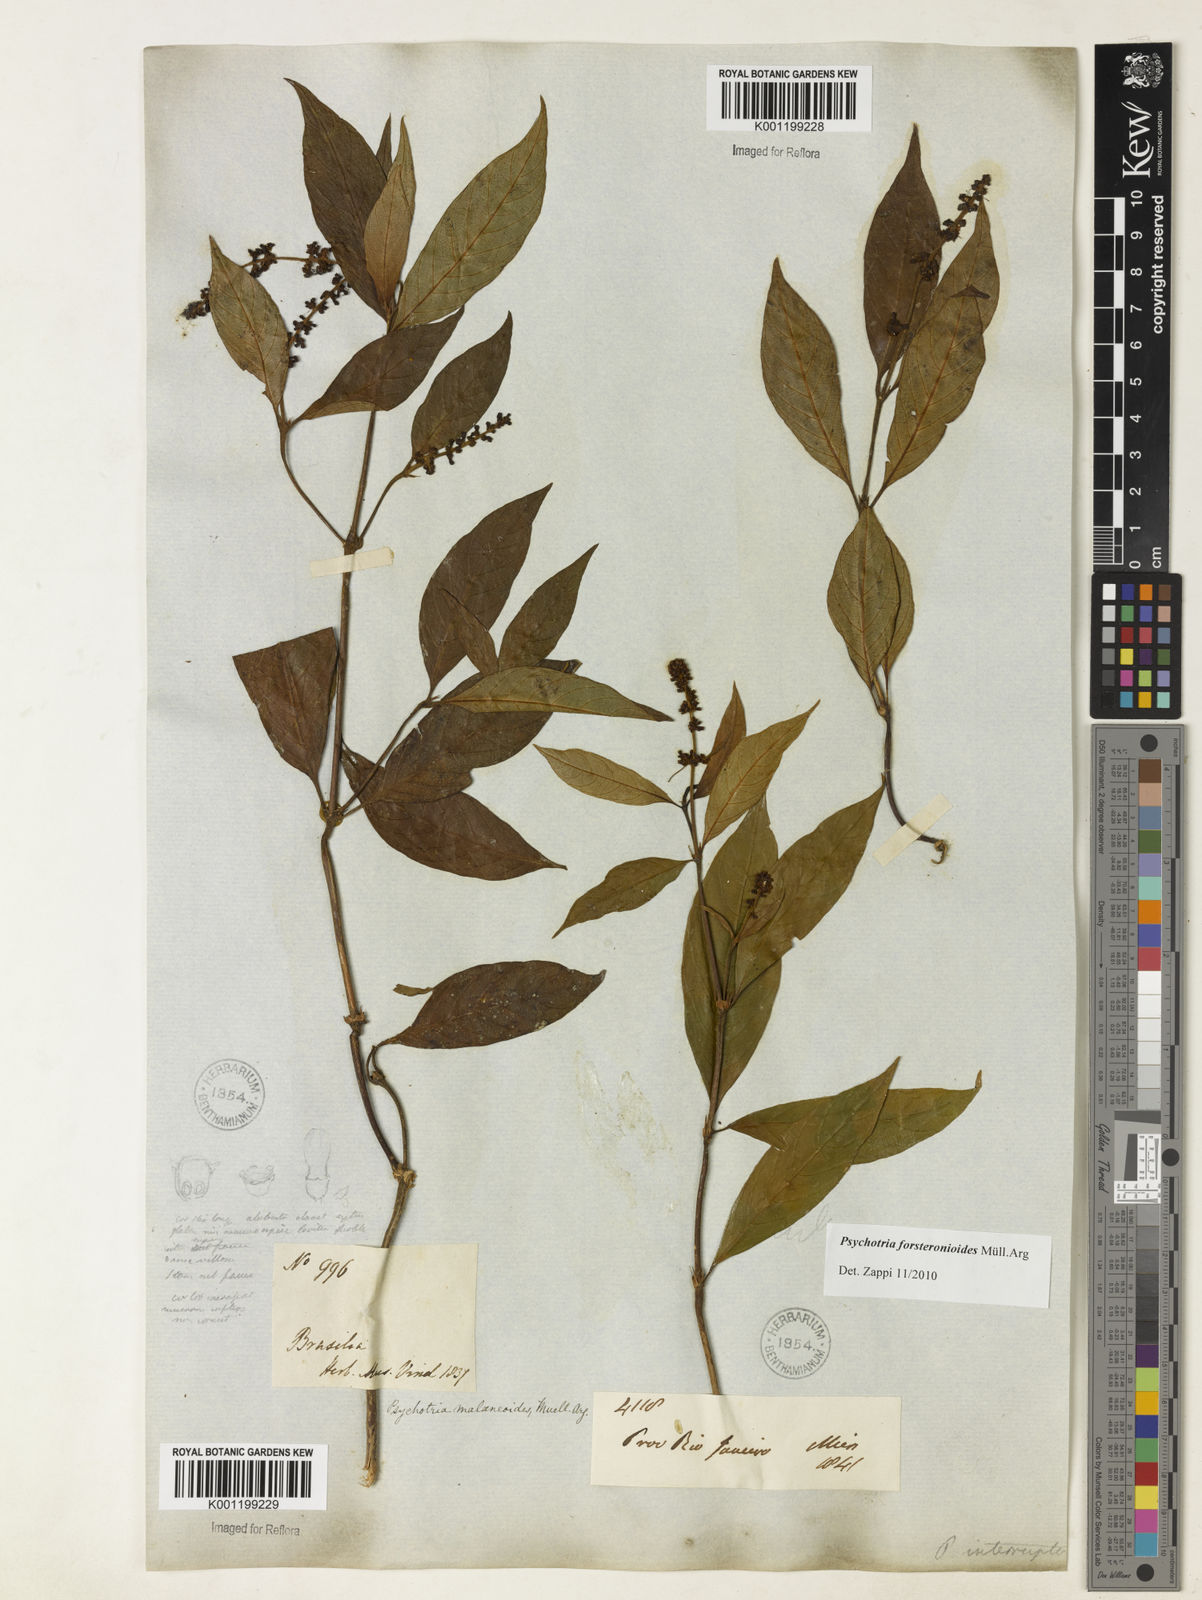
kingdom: Plantae
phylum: Tracheophyta
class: Magnoliopsida
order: Gentianales
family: Rubiaceae
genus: Psychotria
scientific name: Psychotria
